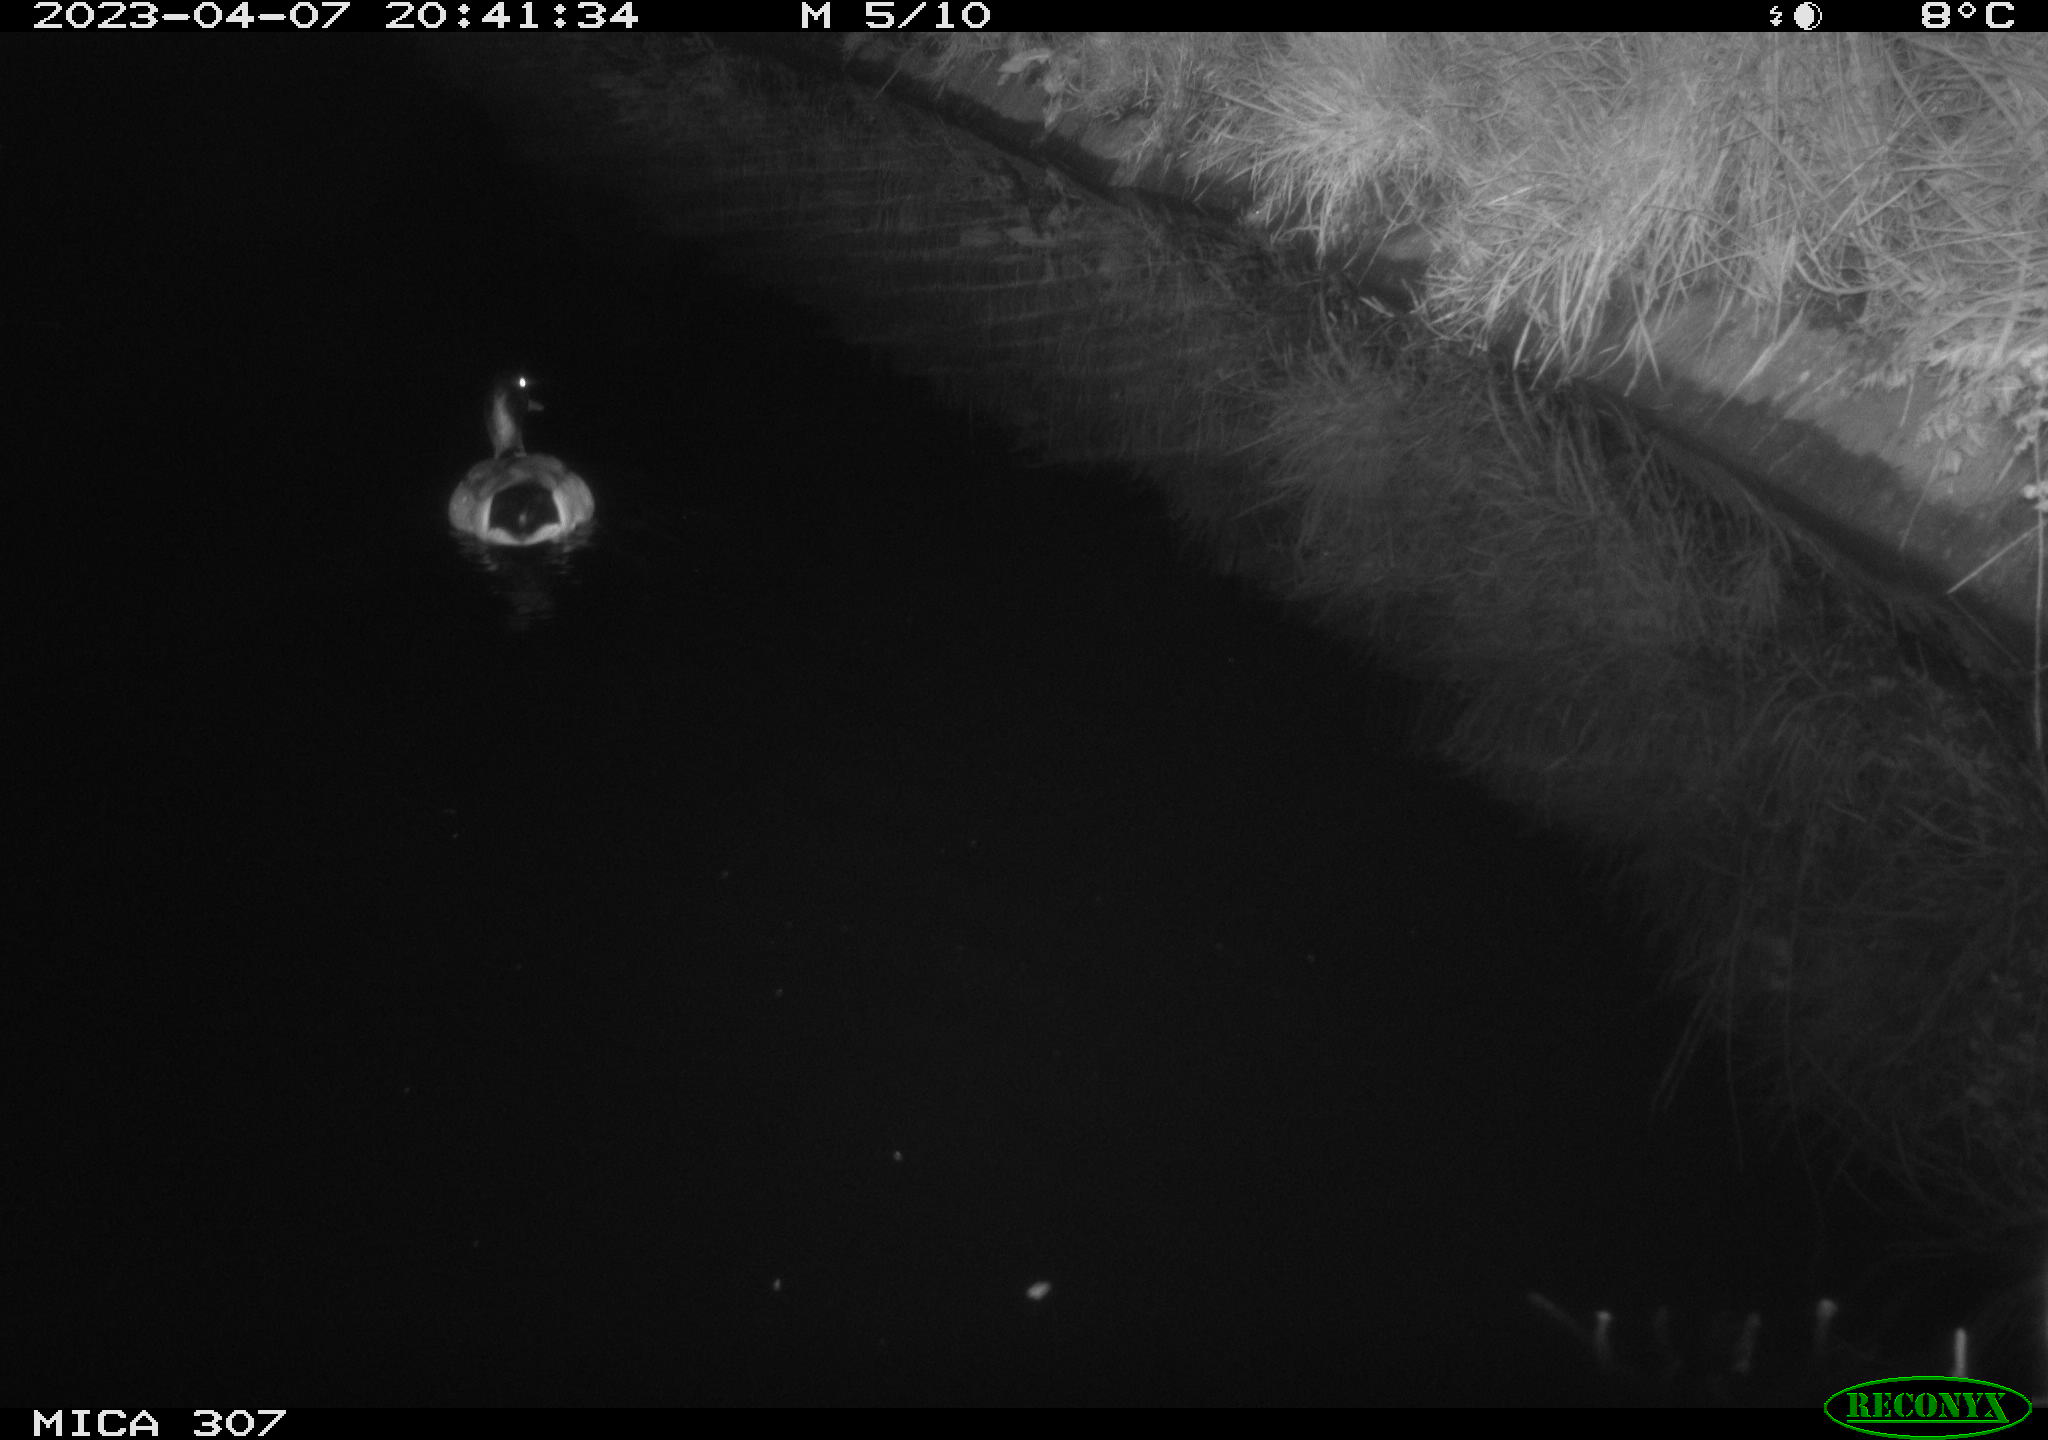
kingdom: Animalia
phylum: Chordata
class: Aves
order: Anseriformes
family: Anatidae
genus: Anas
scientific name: Anas
